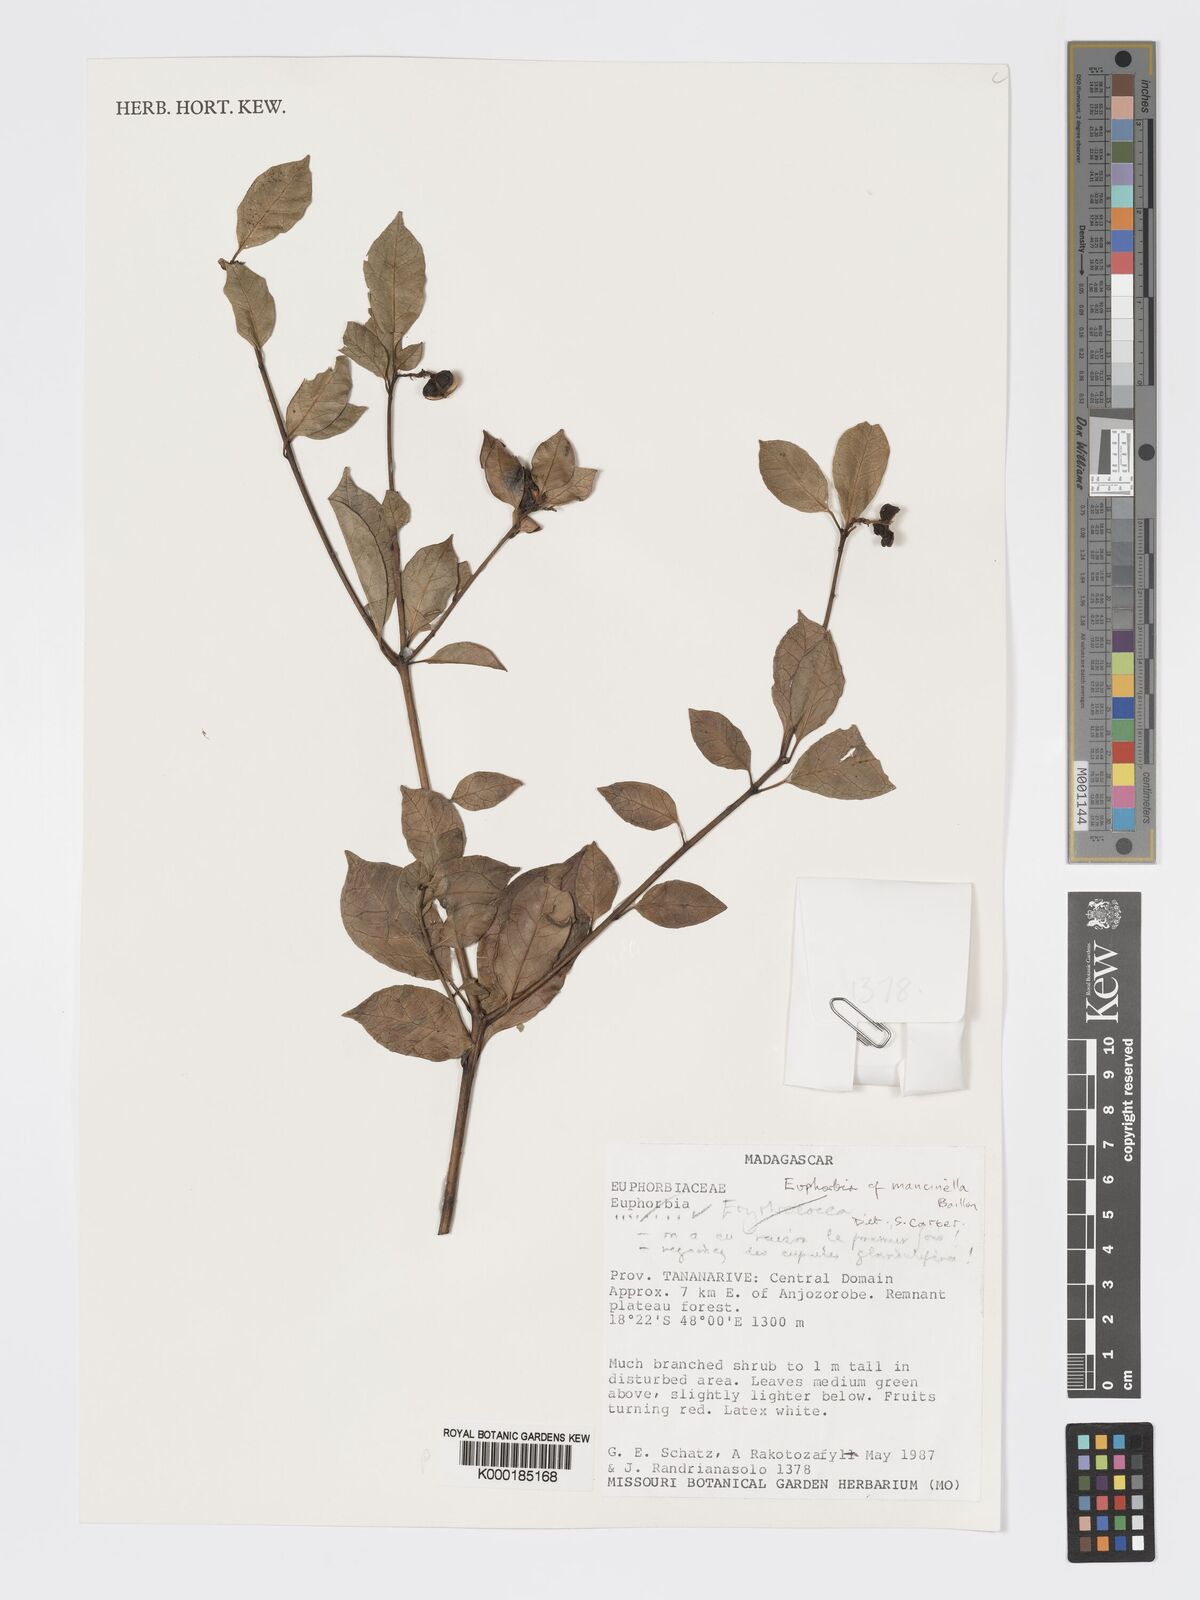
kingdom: Plantae
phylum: Tracheophyta
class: Magnoliopsida
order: Malpighiales
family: Euphorbiaceae
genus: Euphorbia
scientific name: Euphorbia tetraptera
